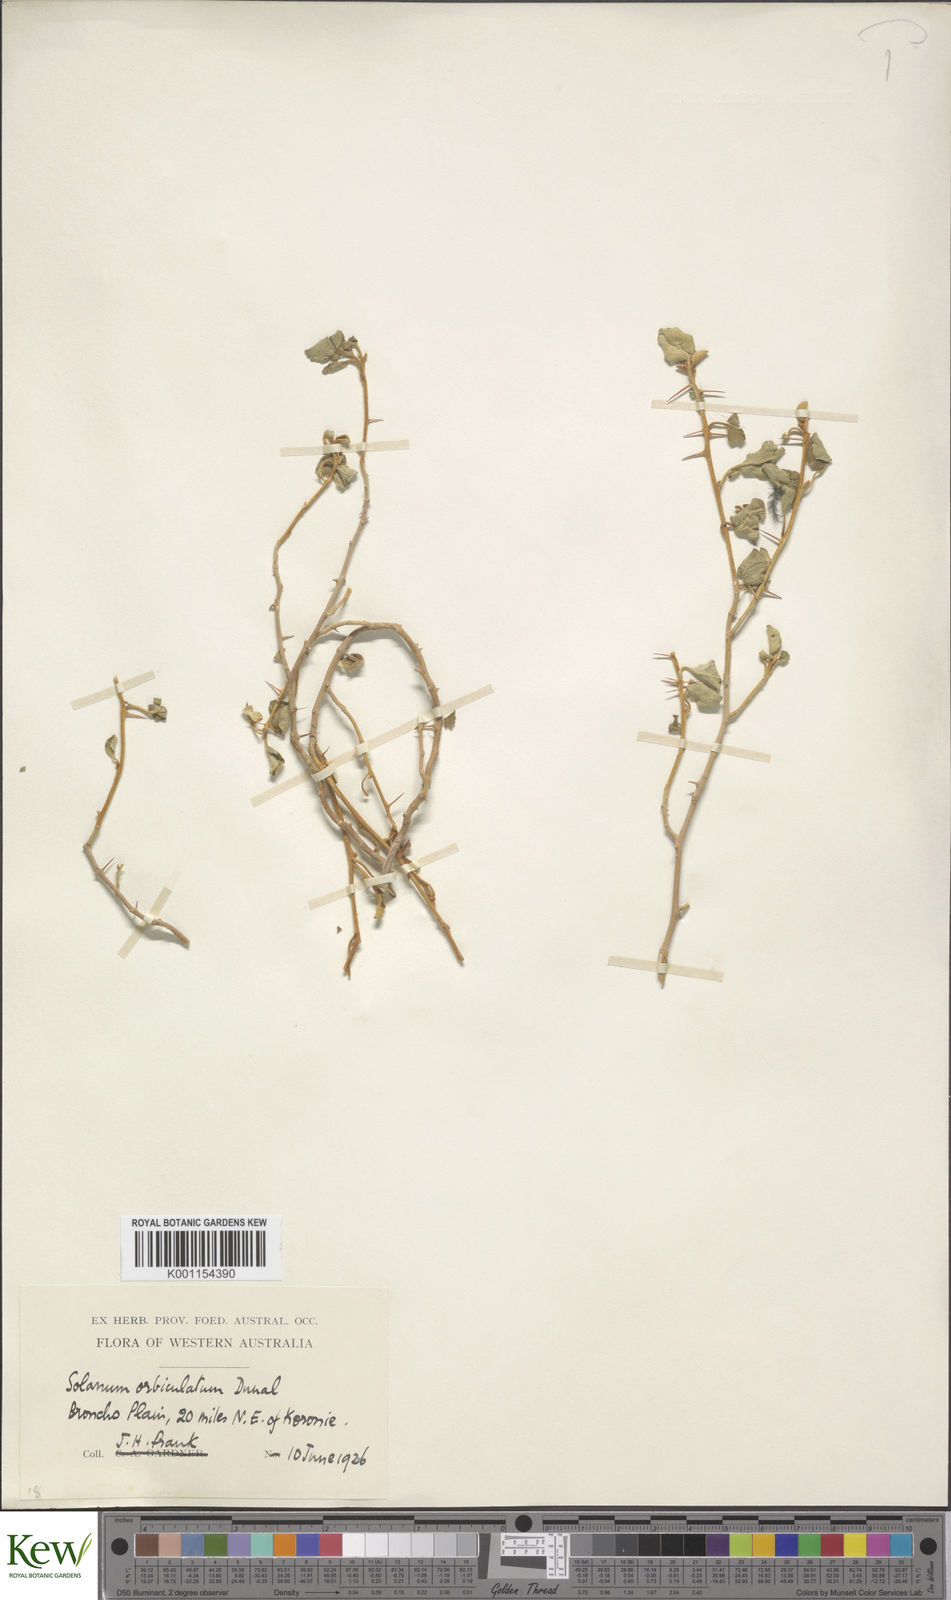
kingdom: Plantae
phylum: Tracheophyta
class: Magnoliopsida
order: Solanales
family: Solanaceae
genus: Solanum
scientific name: Solanum orbiculatum
